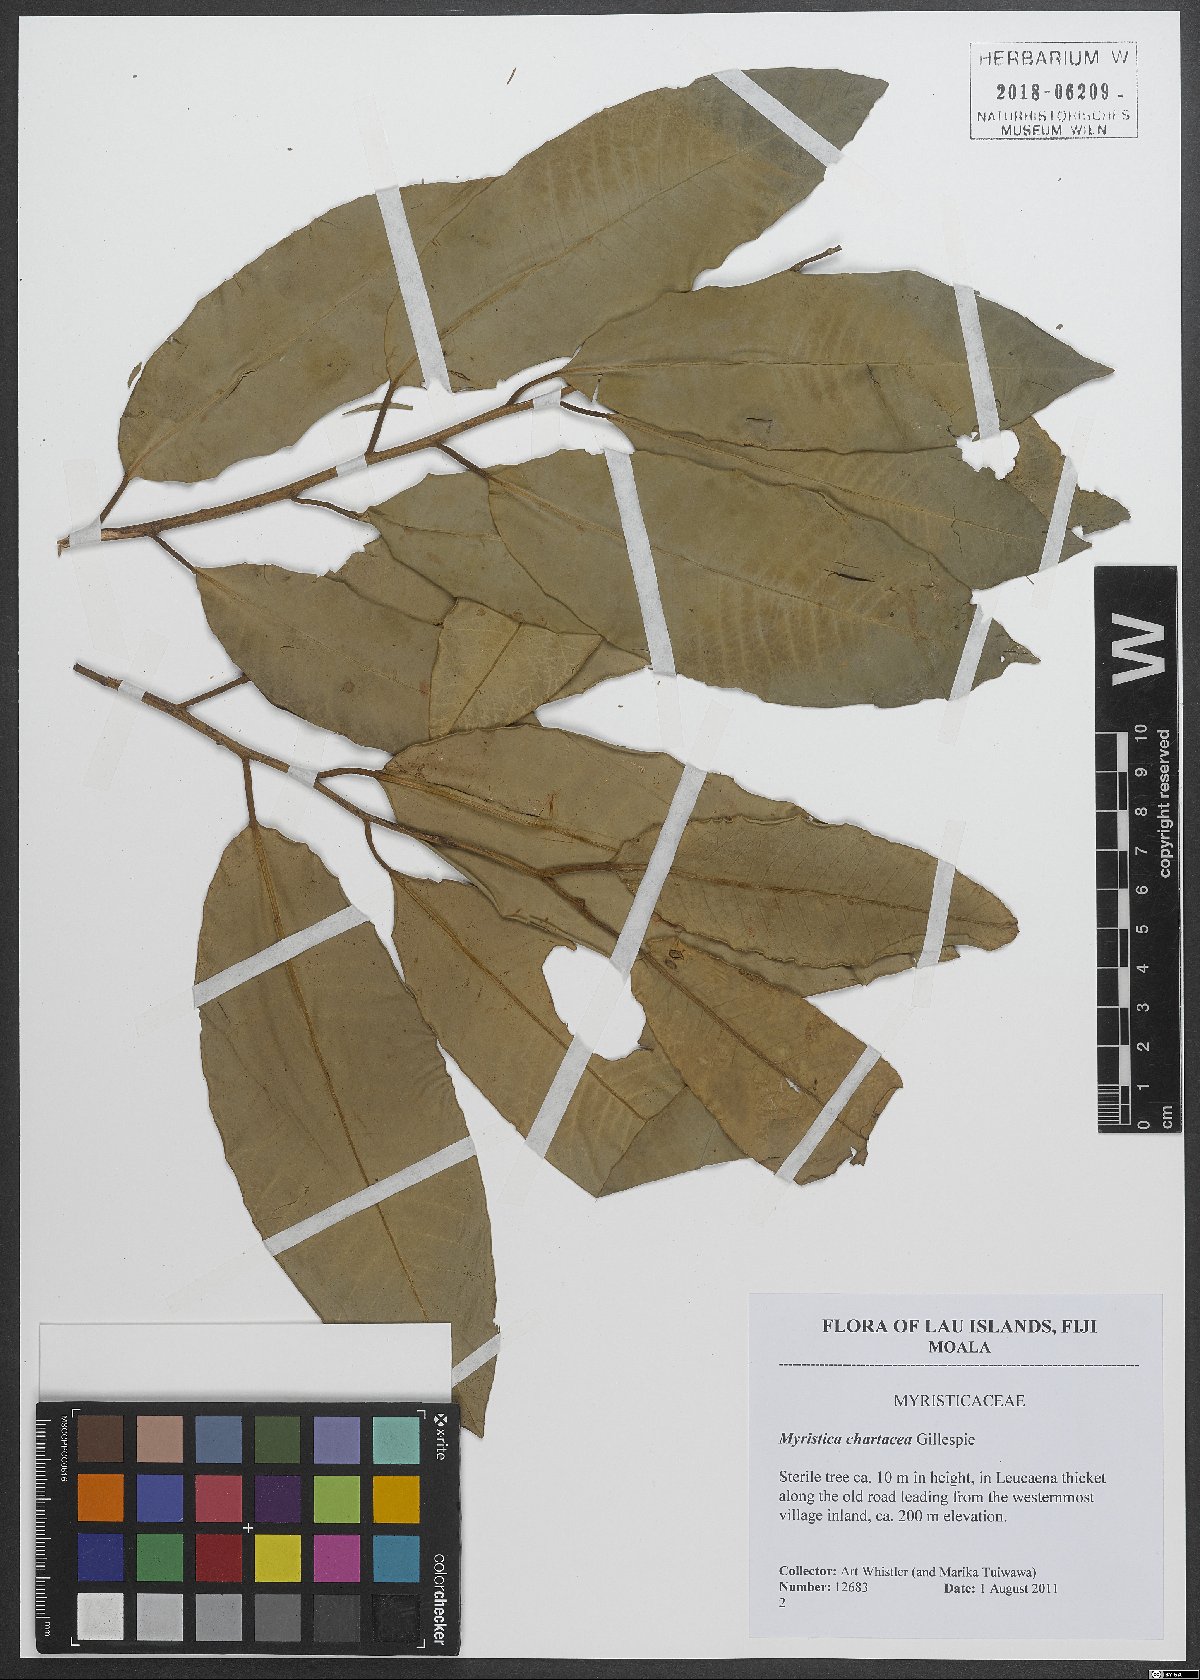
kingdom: Plantae
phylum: Tracheophyta
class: Magnoliopsida
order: Magnoliales
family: Myristicaceae
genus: Myristica
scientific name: Myristica chartacea
